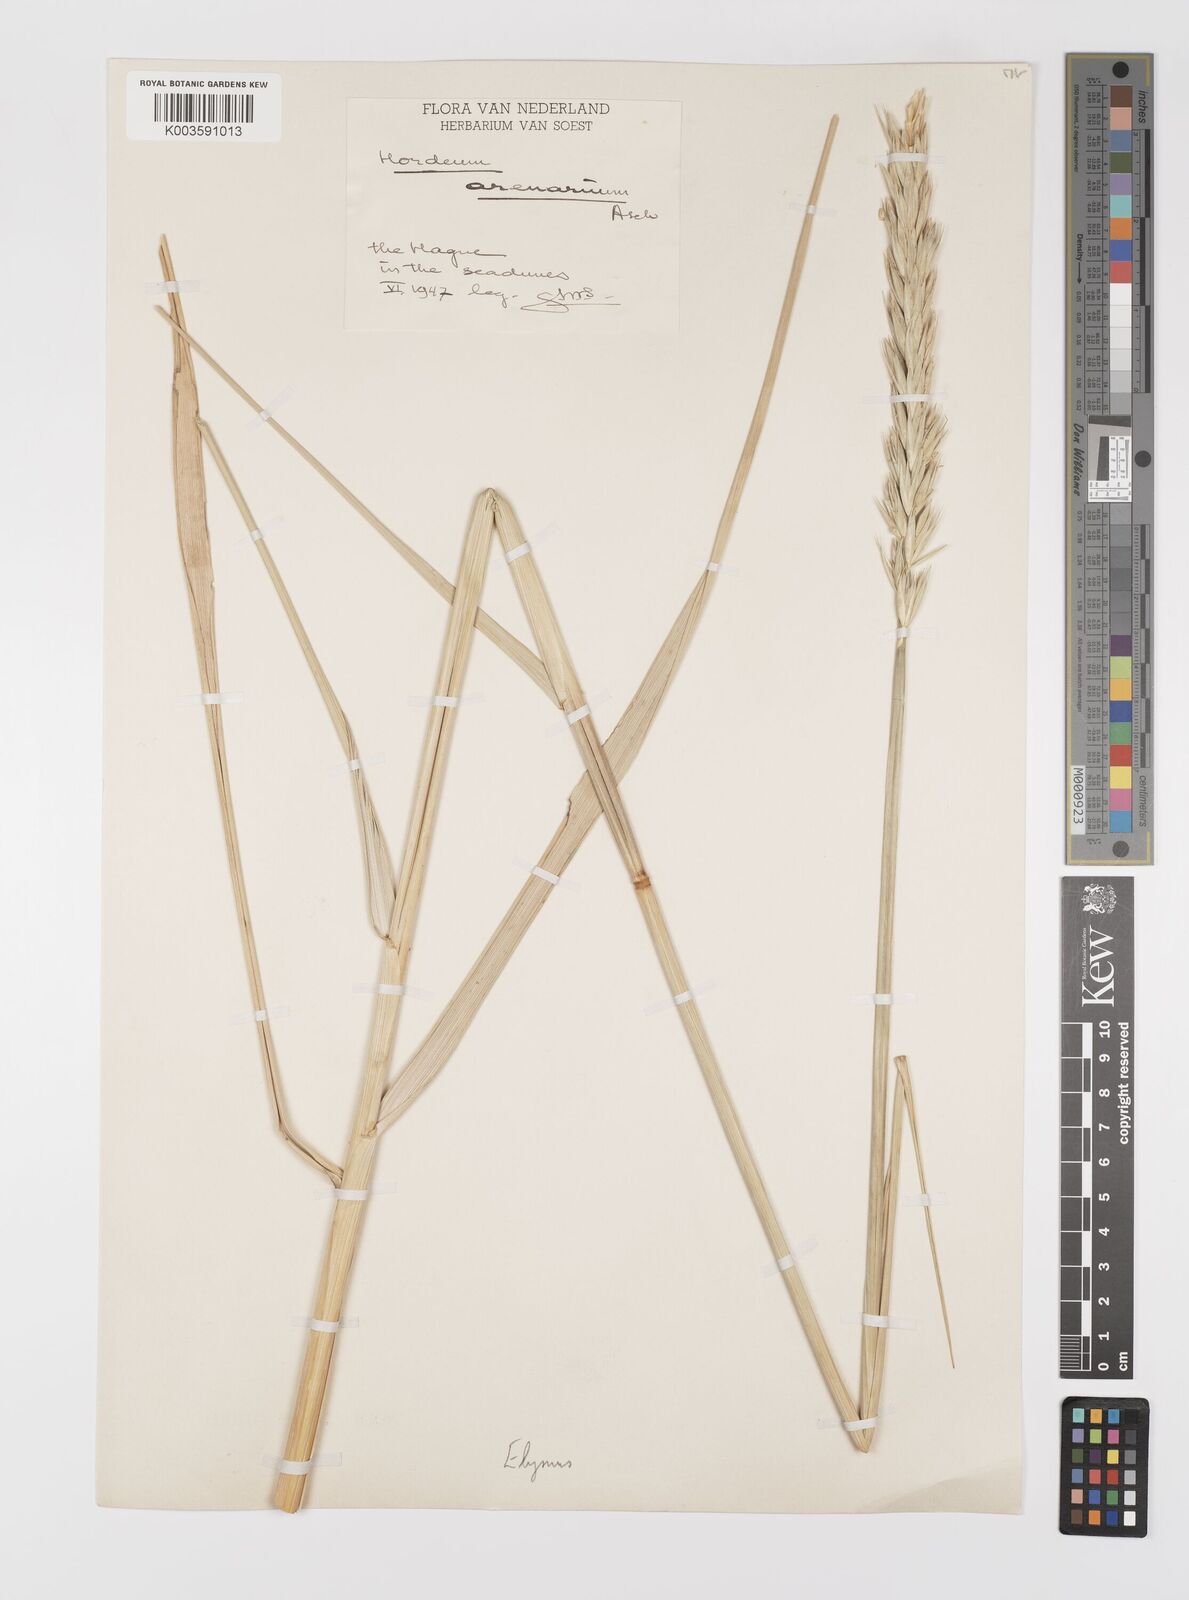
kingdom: Plantae
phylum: Tracheophyta
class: Liliopsida
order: Poales
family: Poaceae
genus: Leymus
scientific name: Leymus arenarius
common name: Lyme-grass
